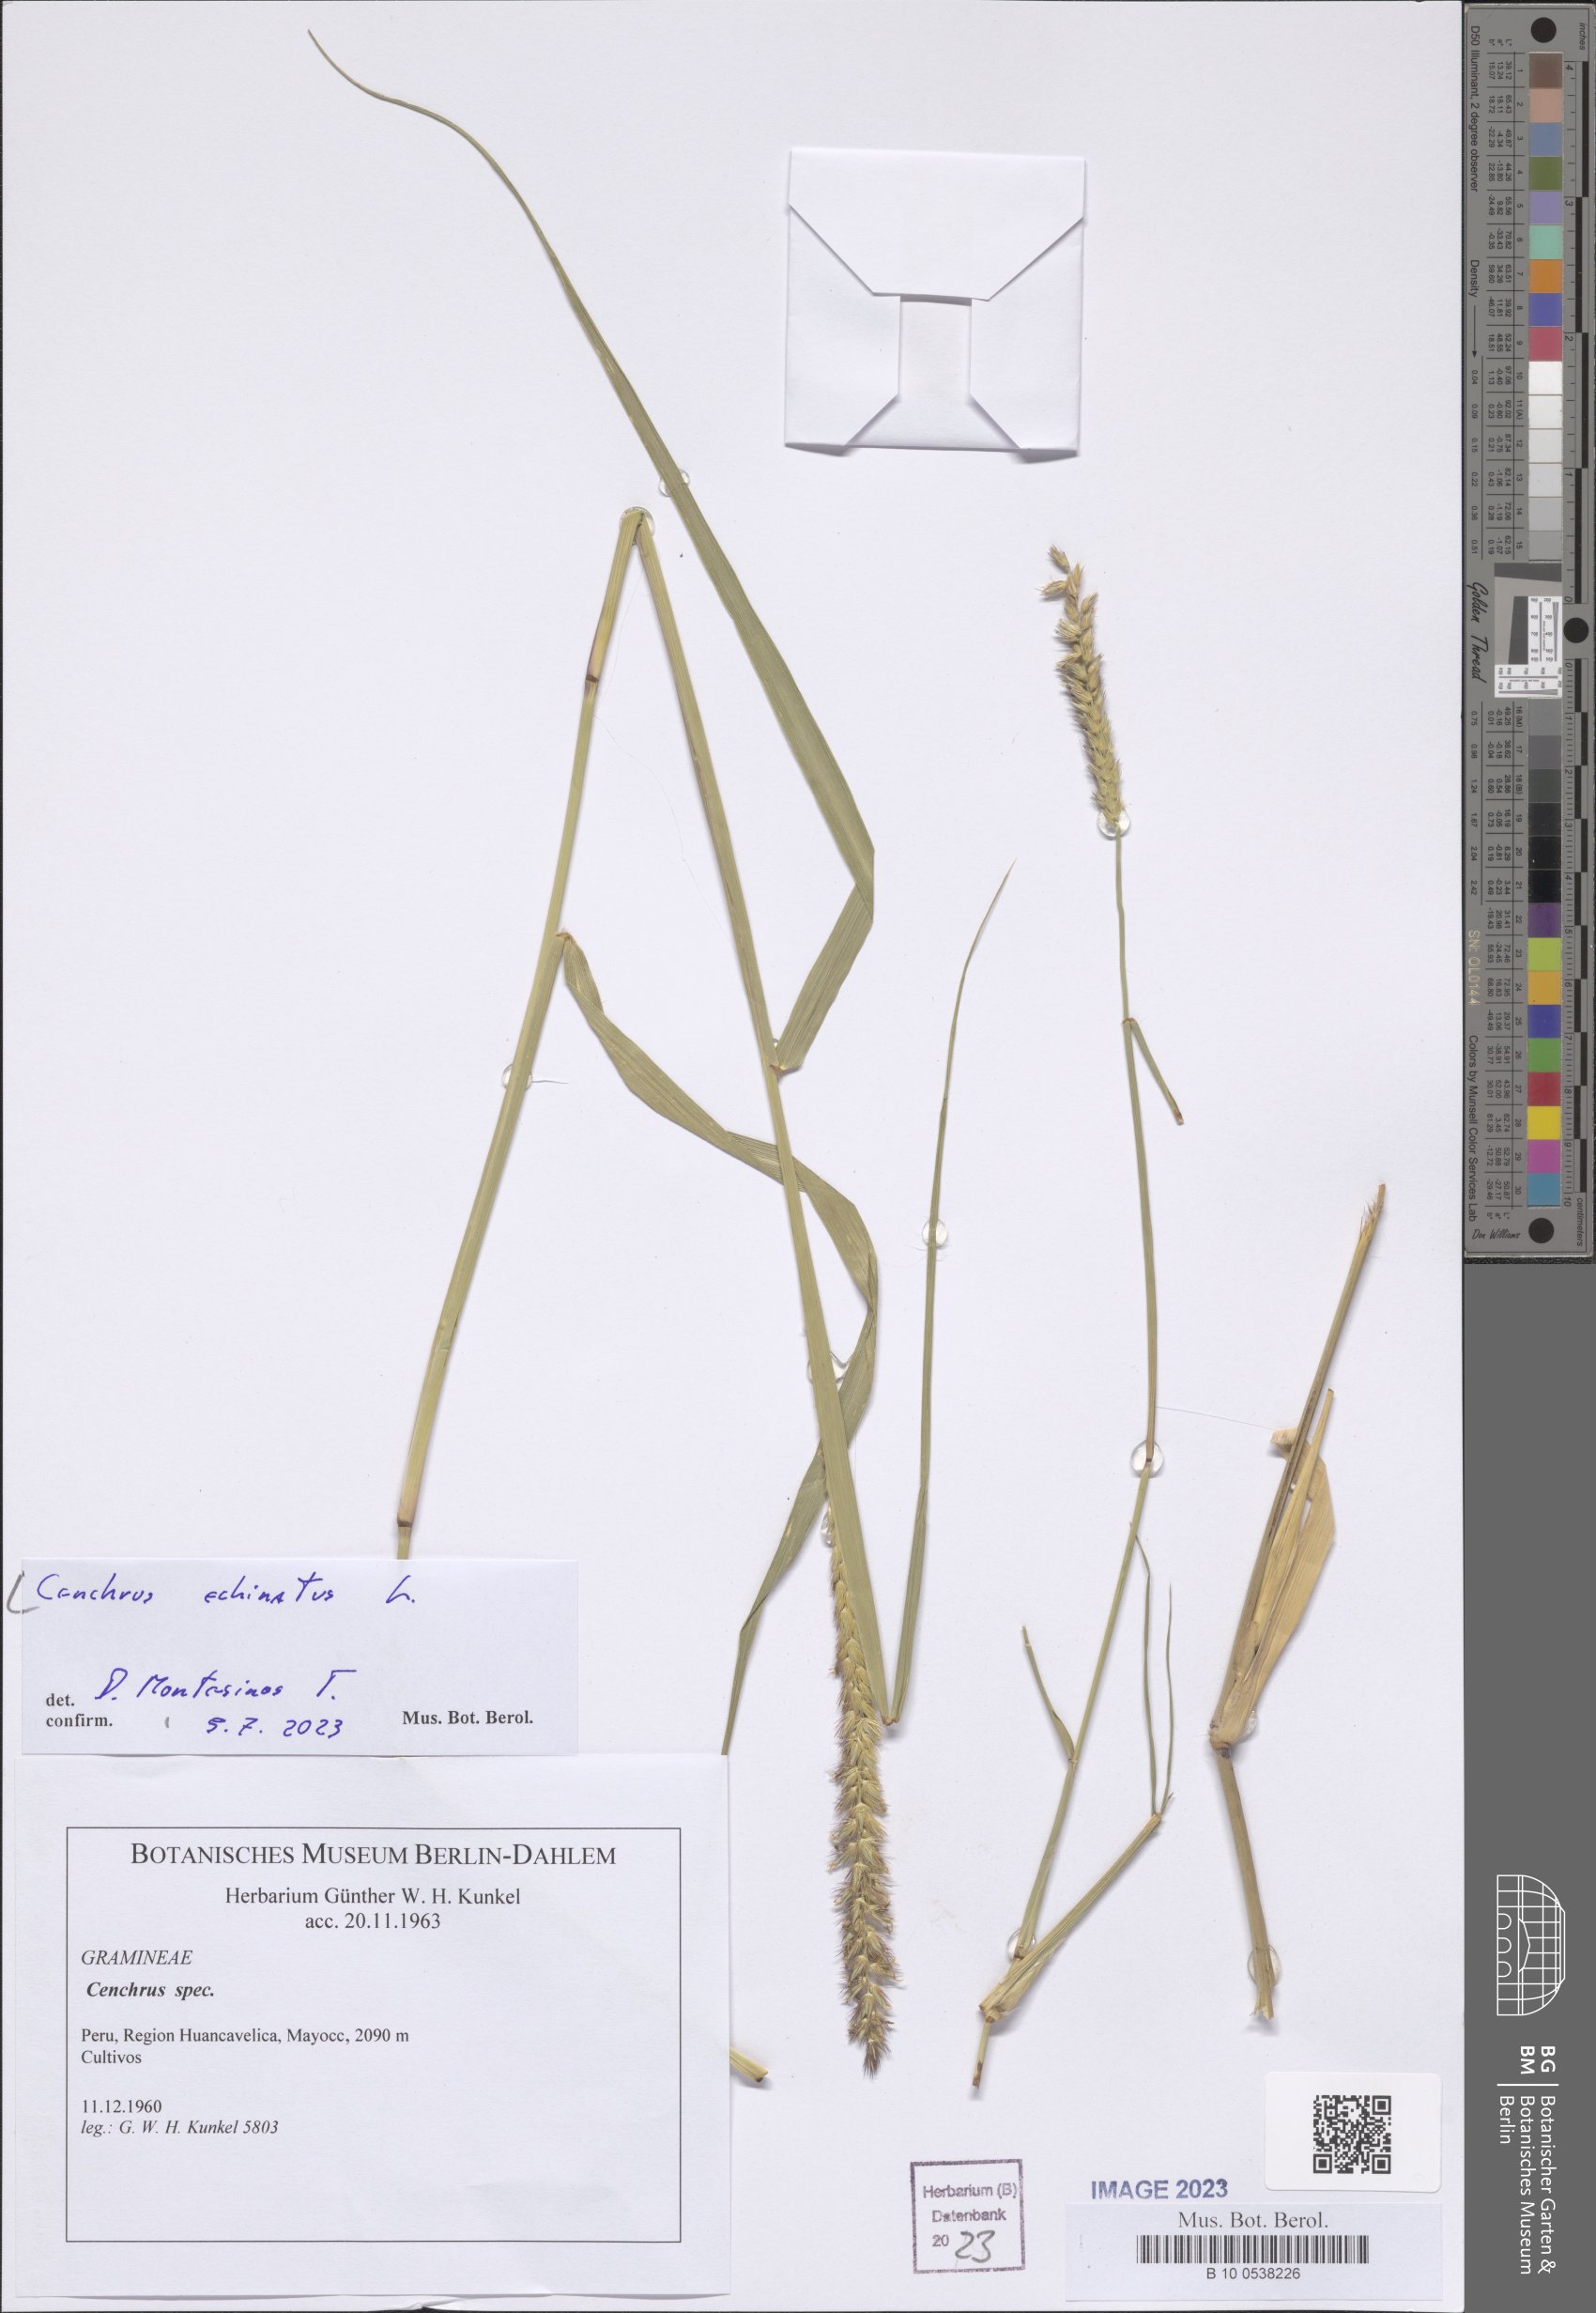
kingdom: Plantae
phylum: Tracheophyta
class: Liliopsida
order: Poales
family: Poaceae
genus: Cenchrus
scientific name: Cenchrus echinatus
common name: Southern sandbur
